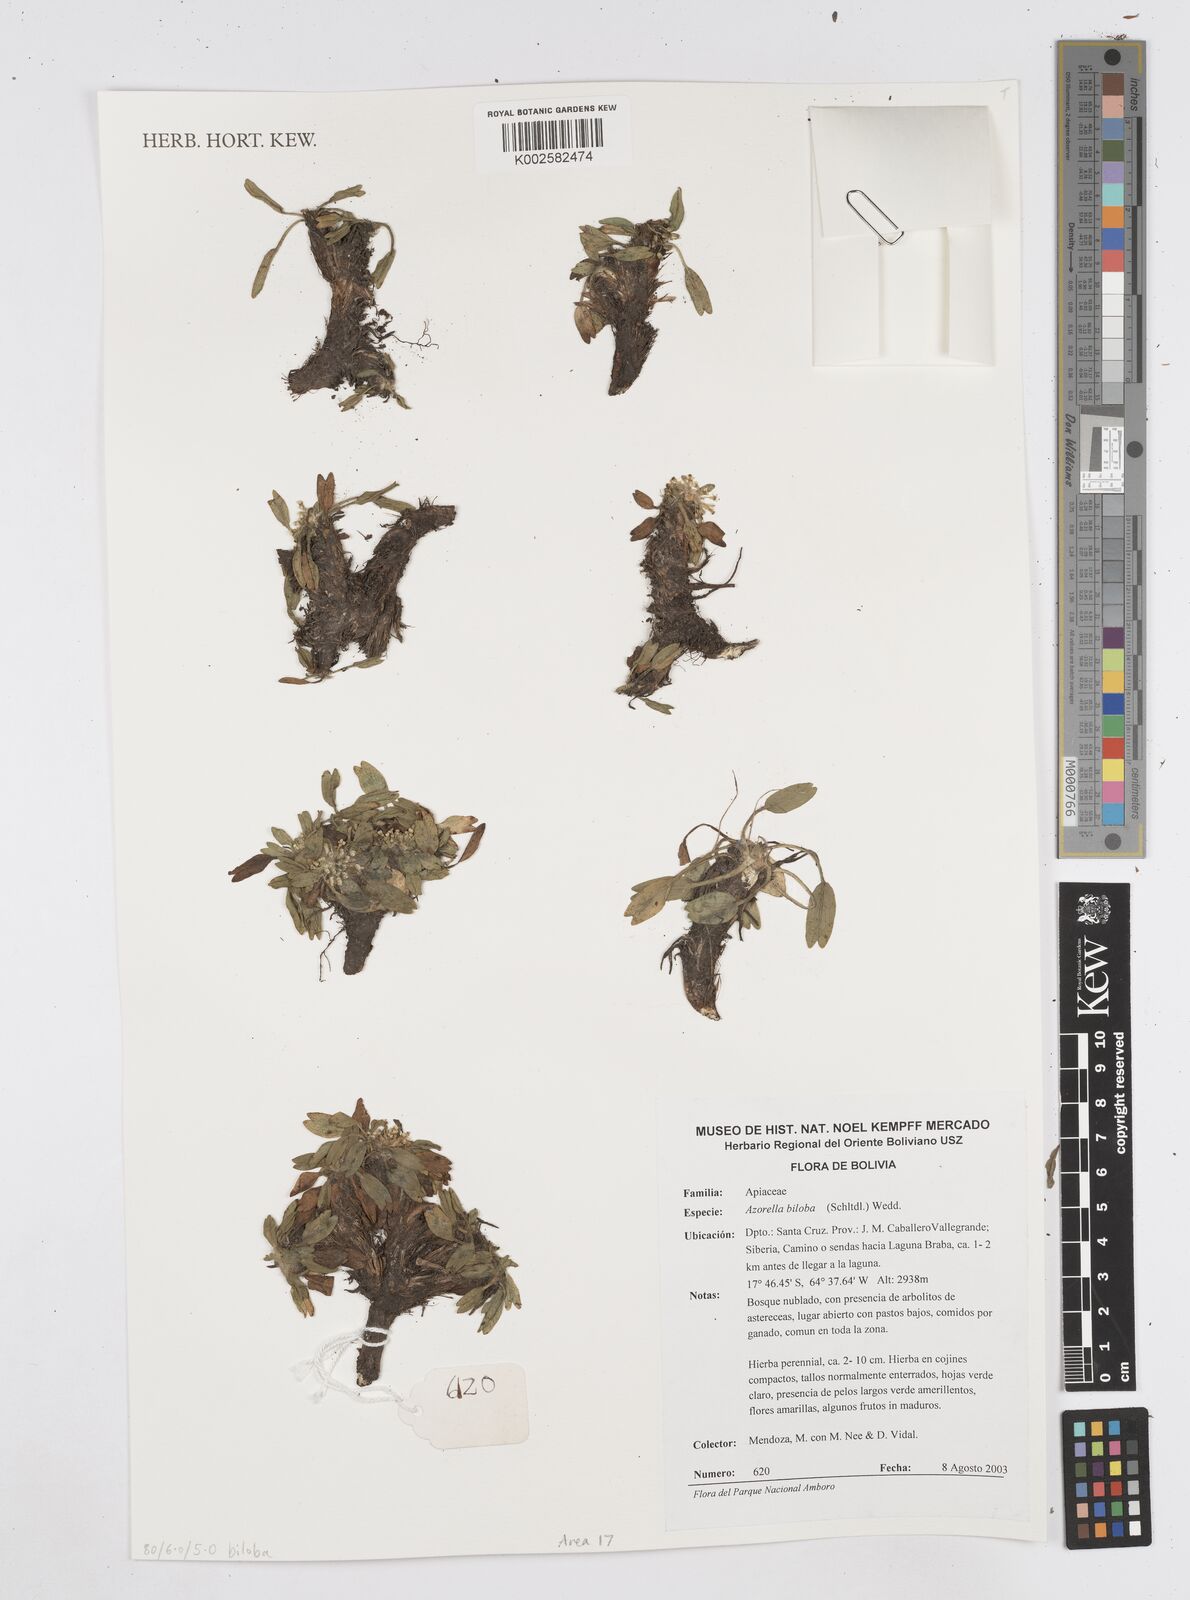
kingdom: Plantae
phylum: Tracheophyta
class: Magnoliopsida
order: Apiales
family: Apiaceae
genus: Azorella
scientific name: Azorella biloba
